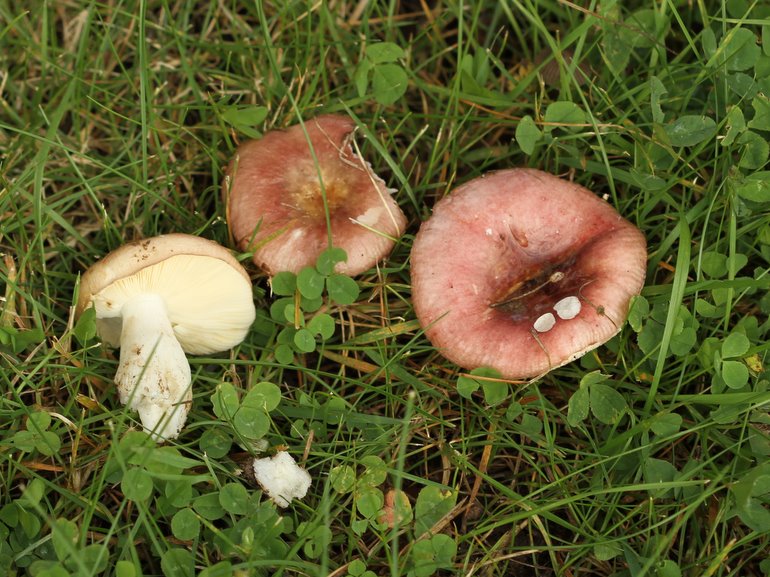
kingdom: Fungi
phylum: Basidiomycota
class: Agaricomycetes
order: Russulales
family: Russulaceae
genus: Russula
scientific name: Russula cessans
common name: fyrre-skørhat
